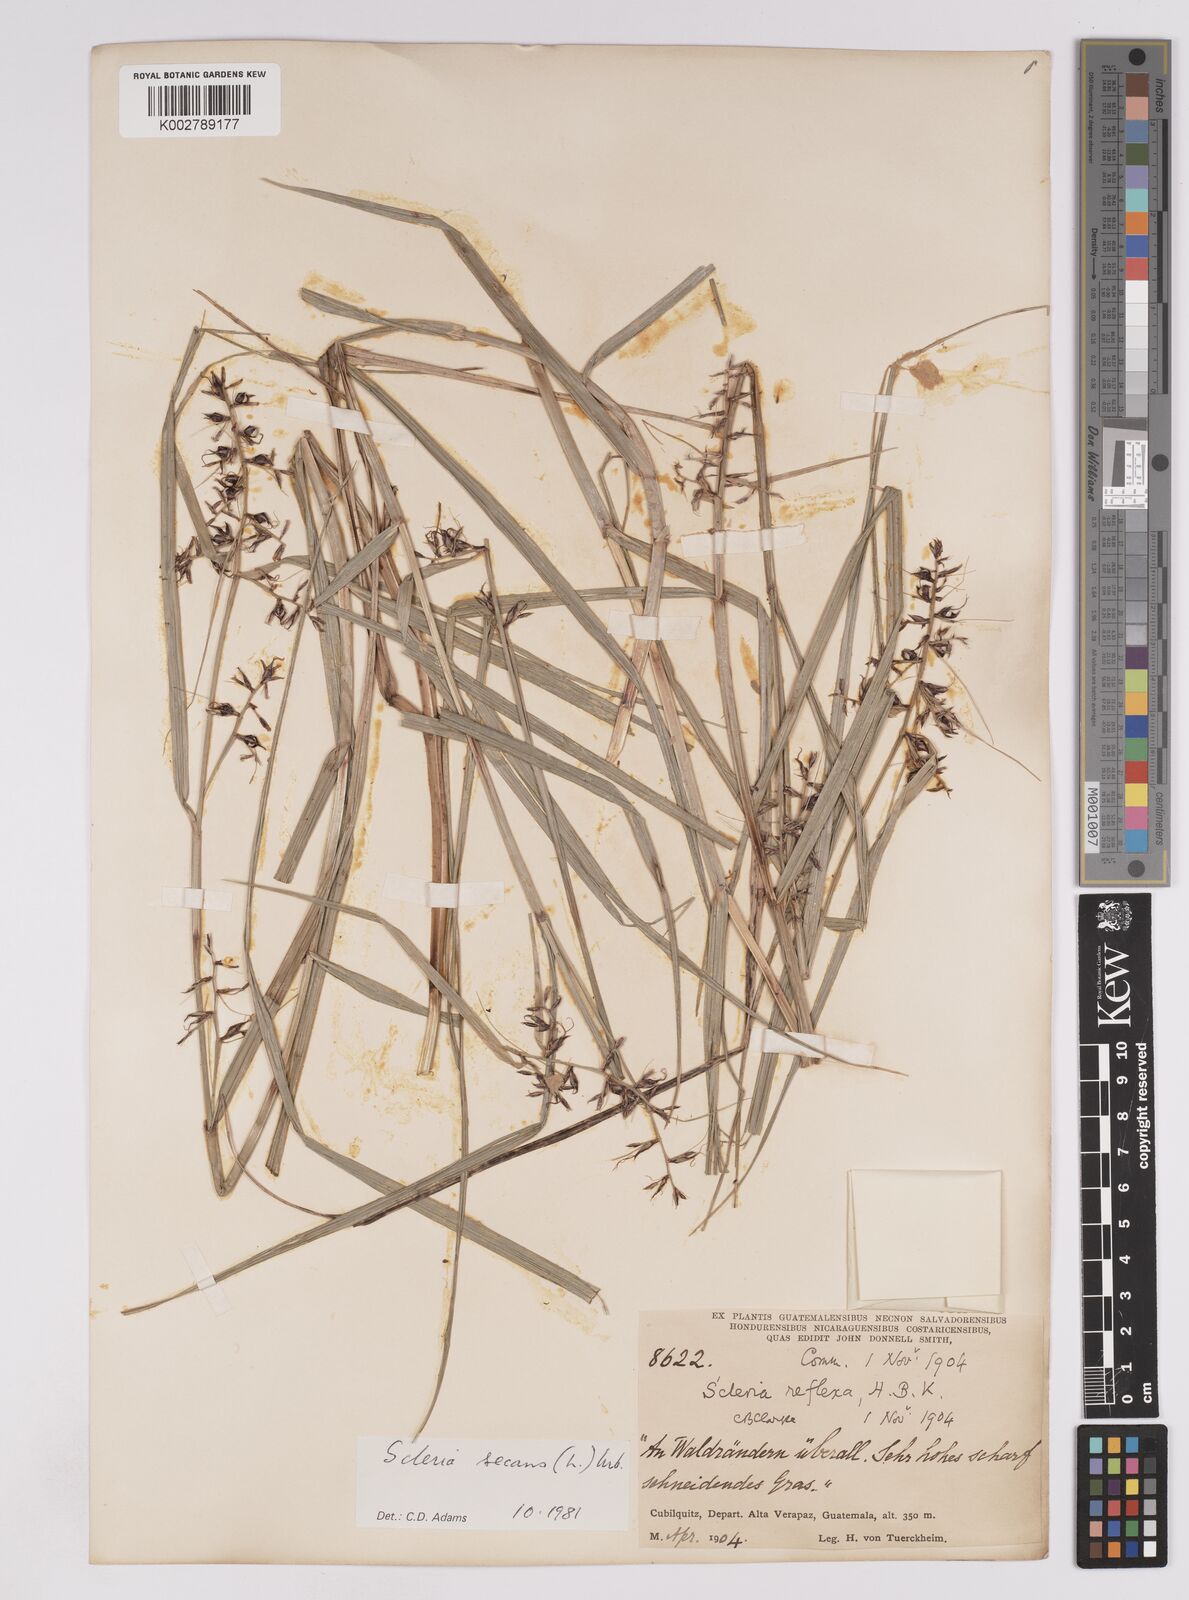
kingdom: Plantae
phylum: Tracheophyta
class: Liliopsida
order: Poales
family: Cyperaceae
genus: Scleria
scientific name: Scleria secans
